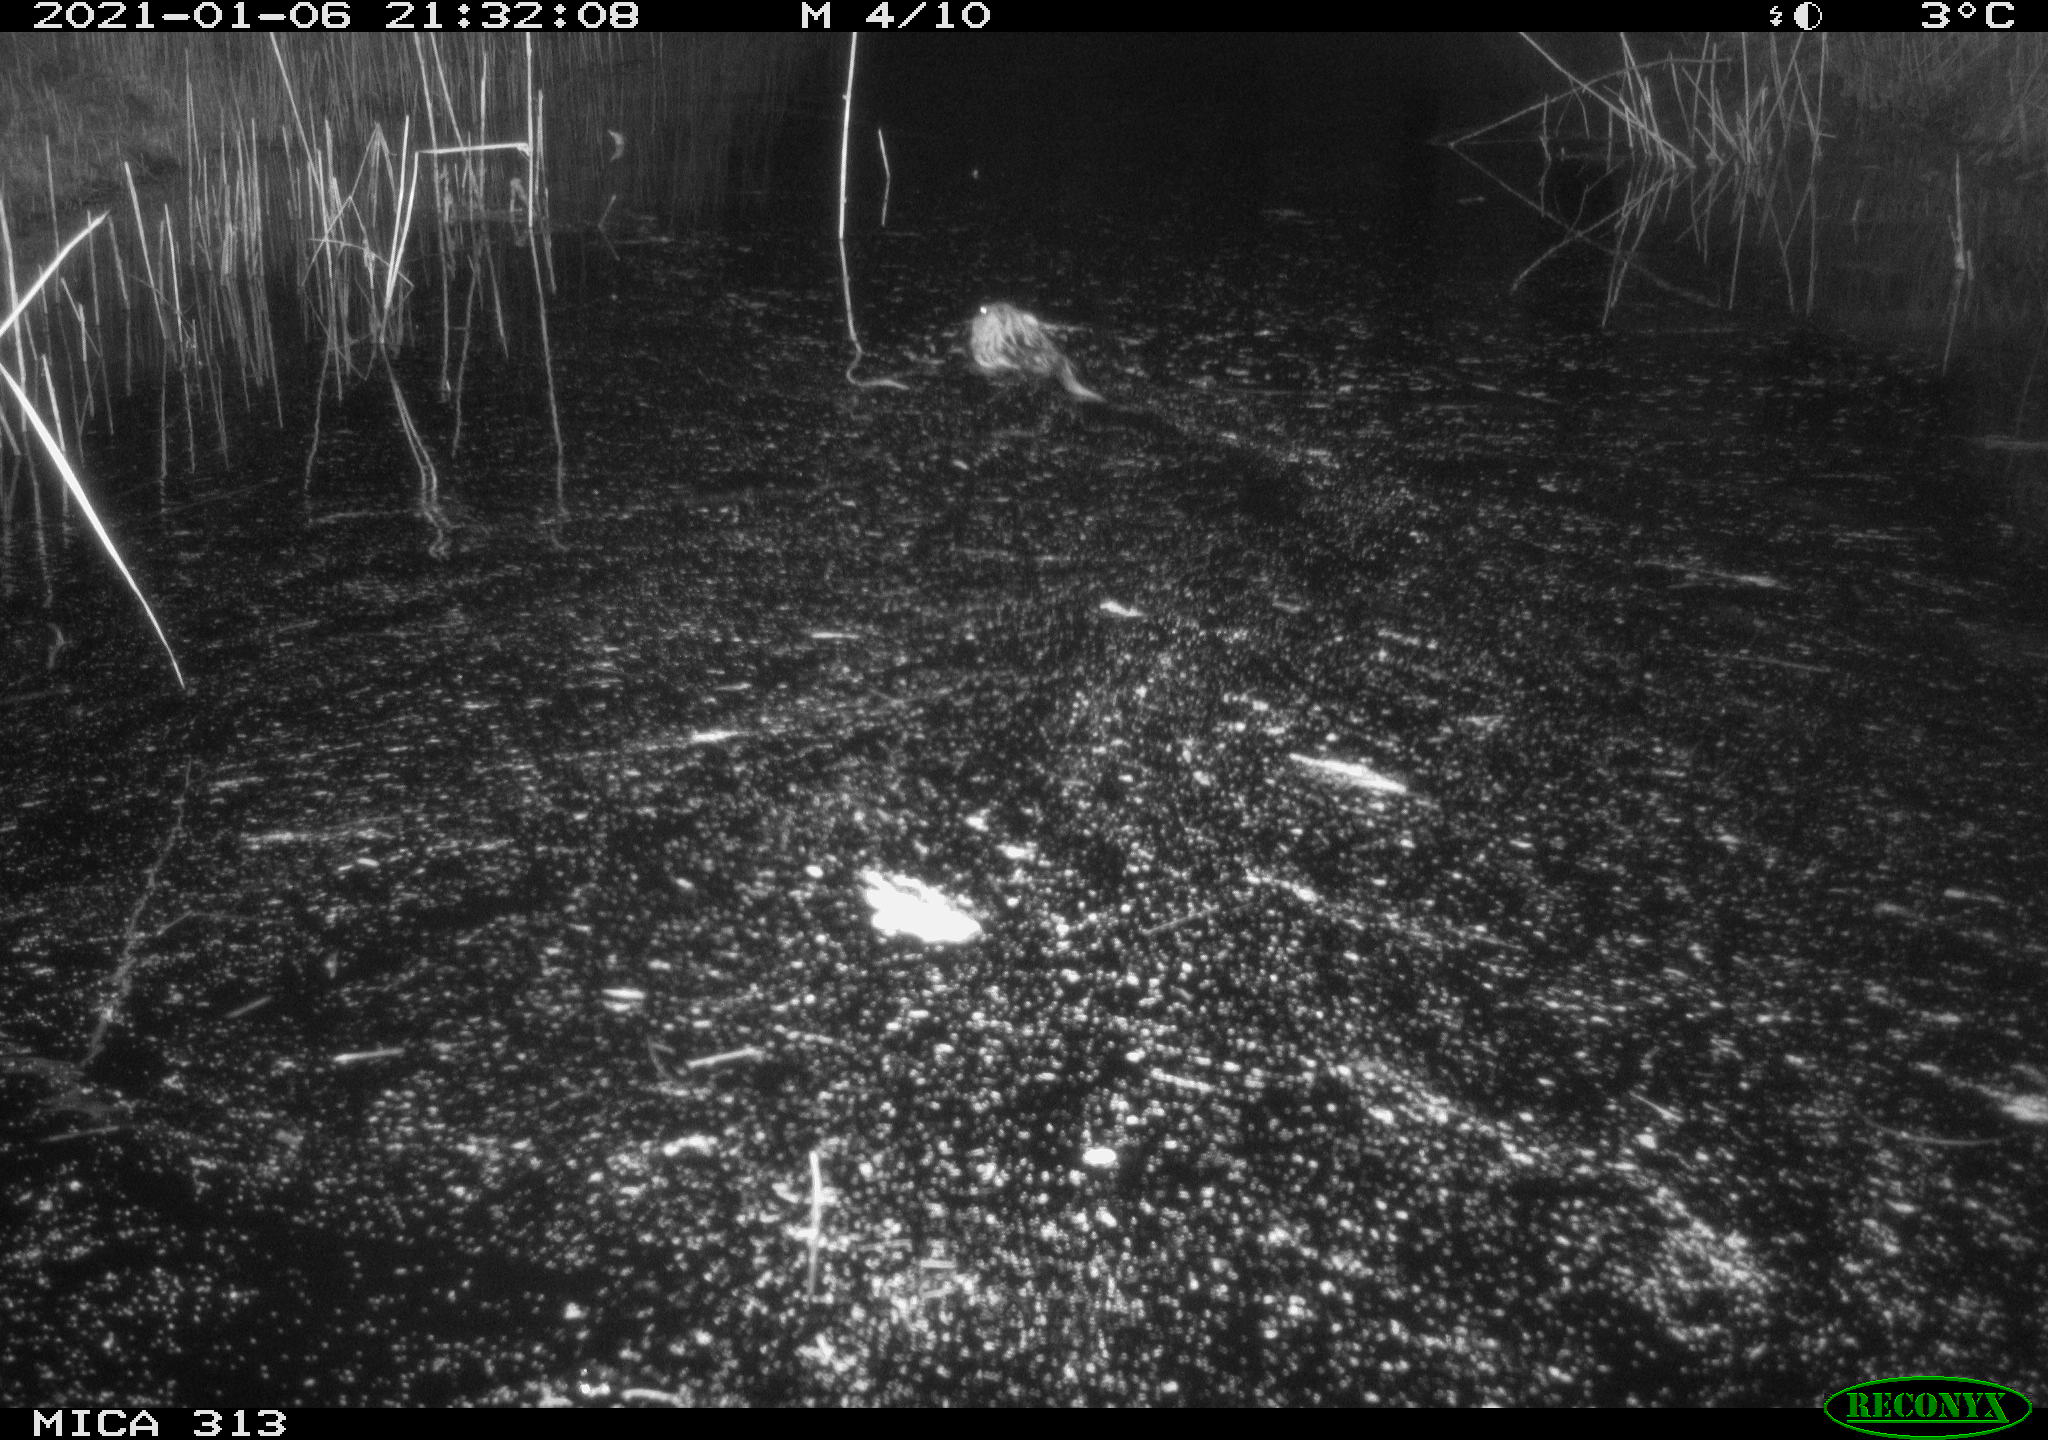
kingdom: Animalia
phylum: Chordata
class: Mammalia
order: Rodentia
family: Cricetidae
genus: Ondatra
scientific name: Ondatra zibethicus
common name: Muskrat
